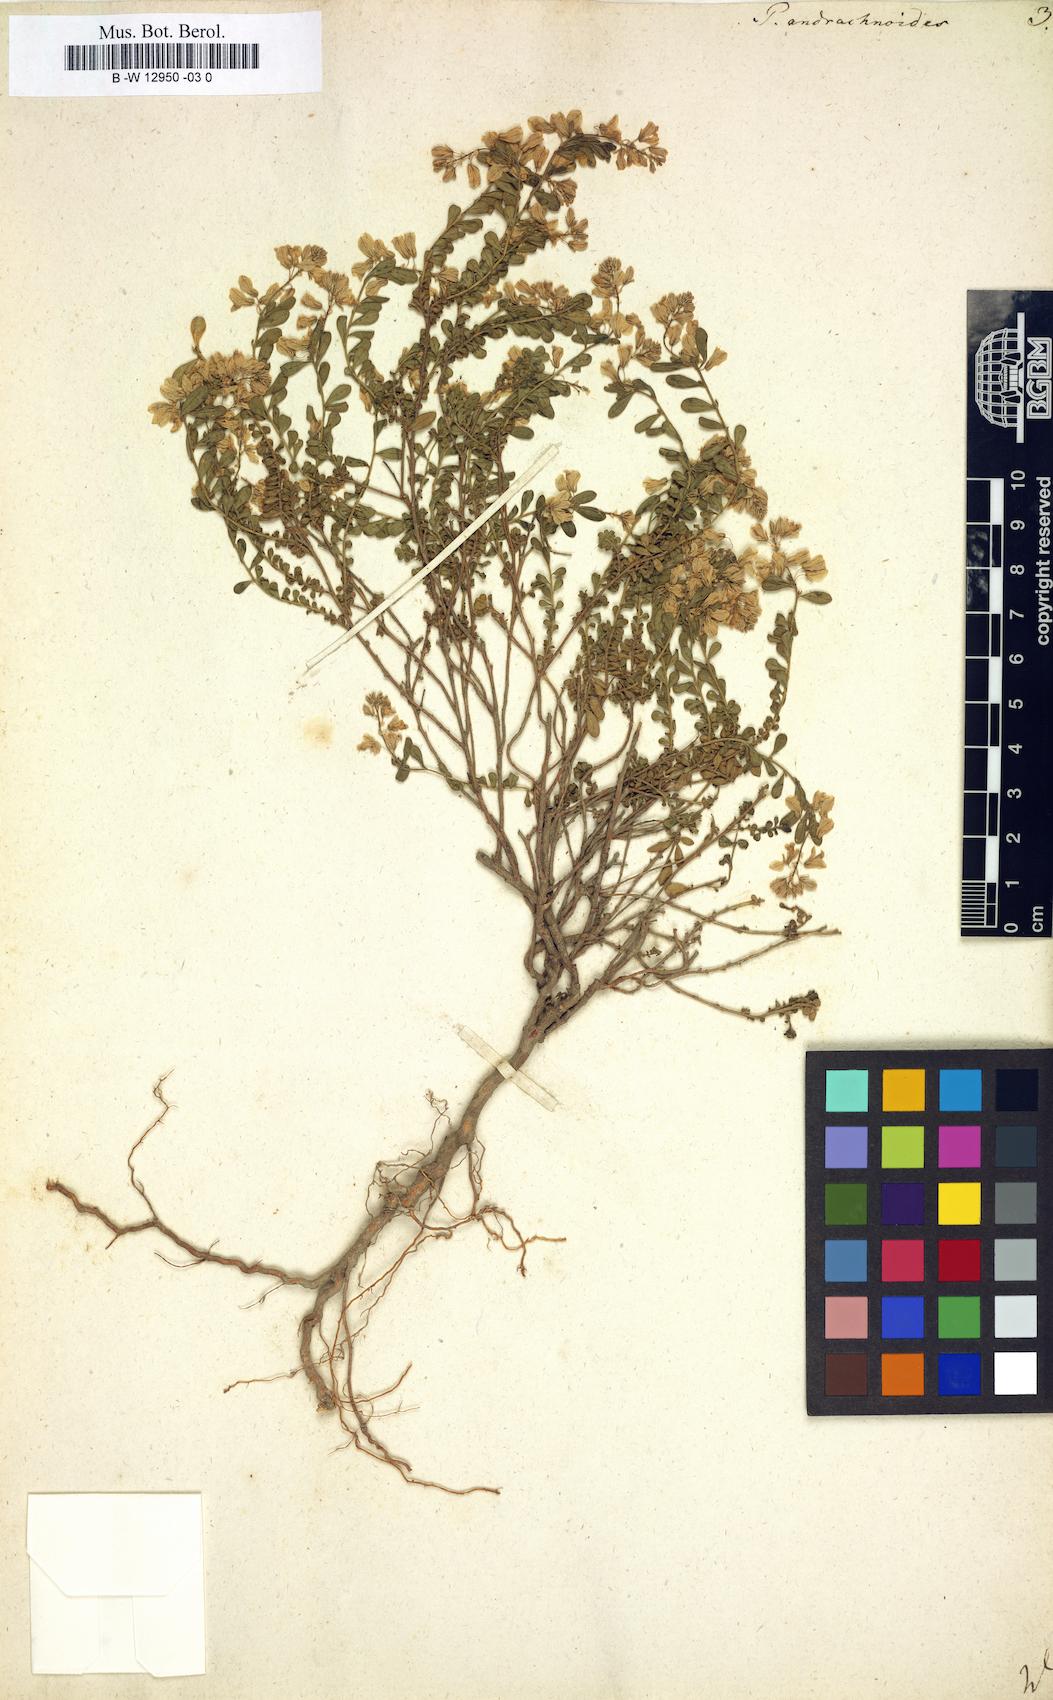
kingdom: Plantae
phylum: Tracheophyta
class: Magnoliopsida
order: Fabales
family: Polygalaceae
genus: Polygala
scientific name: Polygala supina
